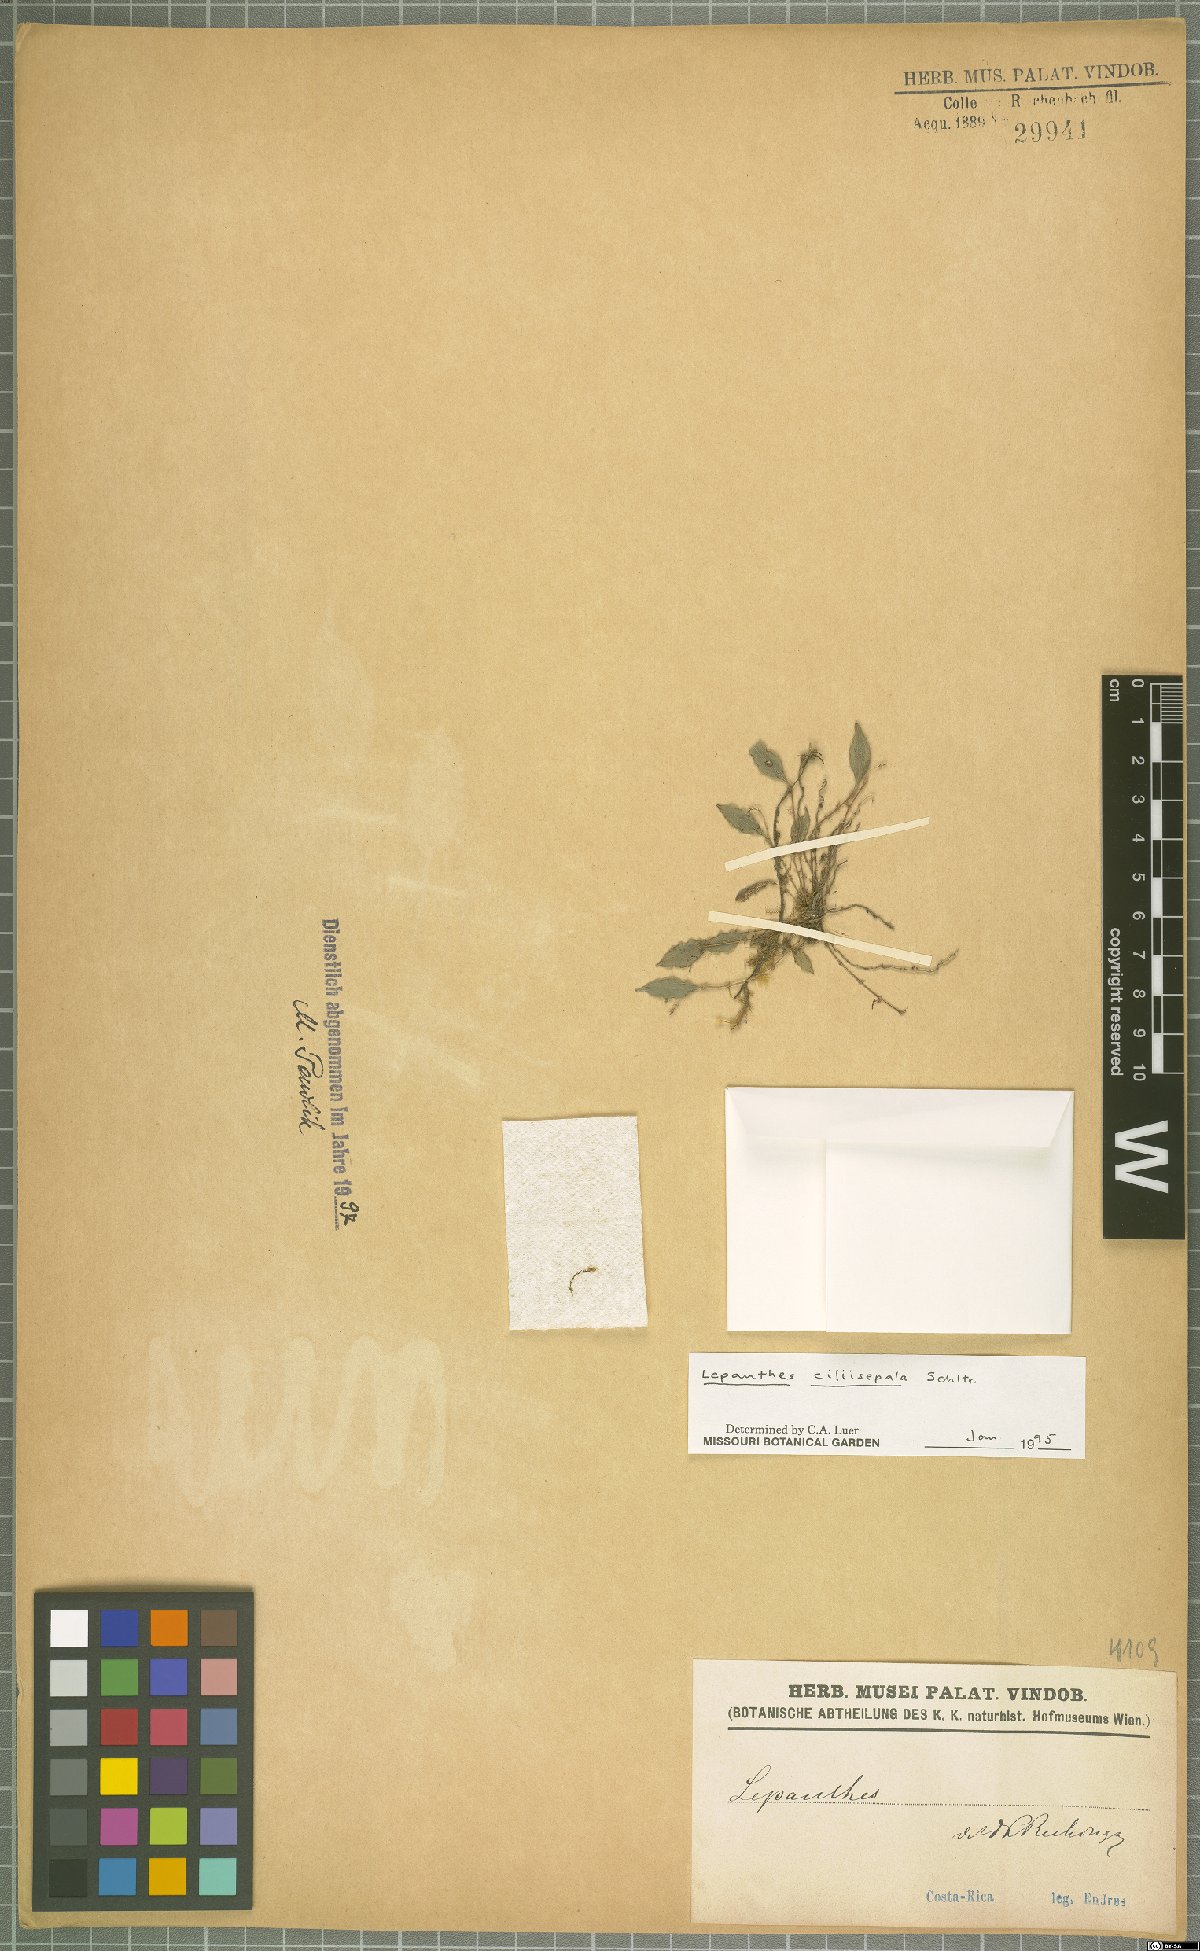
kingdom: Plantae
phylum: Tracheophyta
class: Liliopsida
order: Asparagales
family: Orchidaceae
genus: Lepanthes
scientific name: Lepanthes ciliisepala
